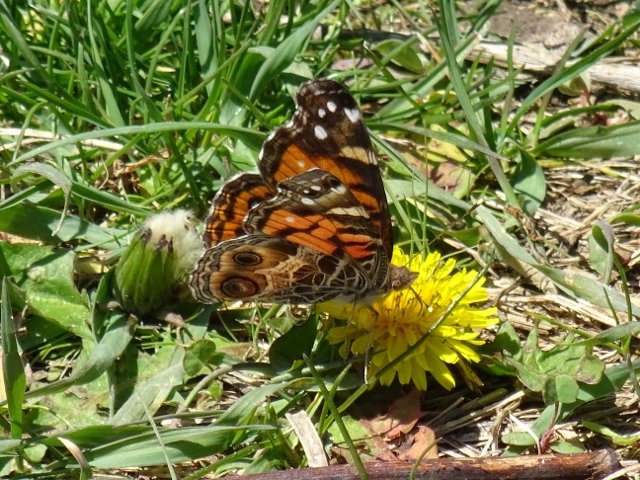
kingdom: Animalia
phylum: Arthropoda
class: Insecta
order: Lepidoptera
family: Nymphalidae
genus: Vanessa
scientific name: Vanessa virginiensis
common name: American Lady
